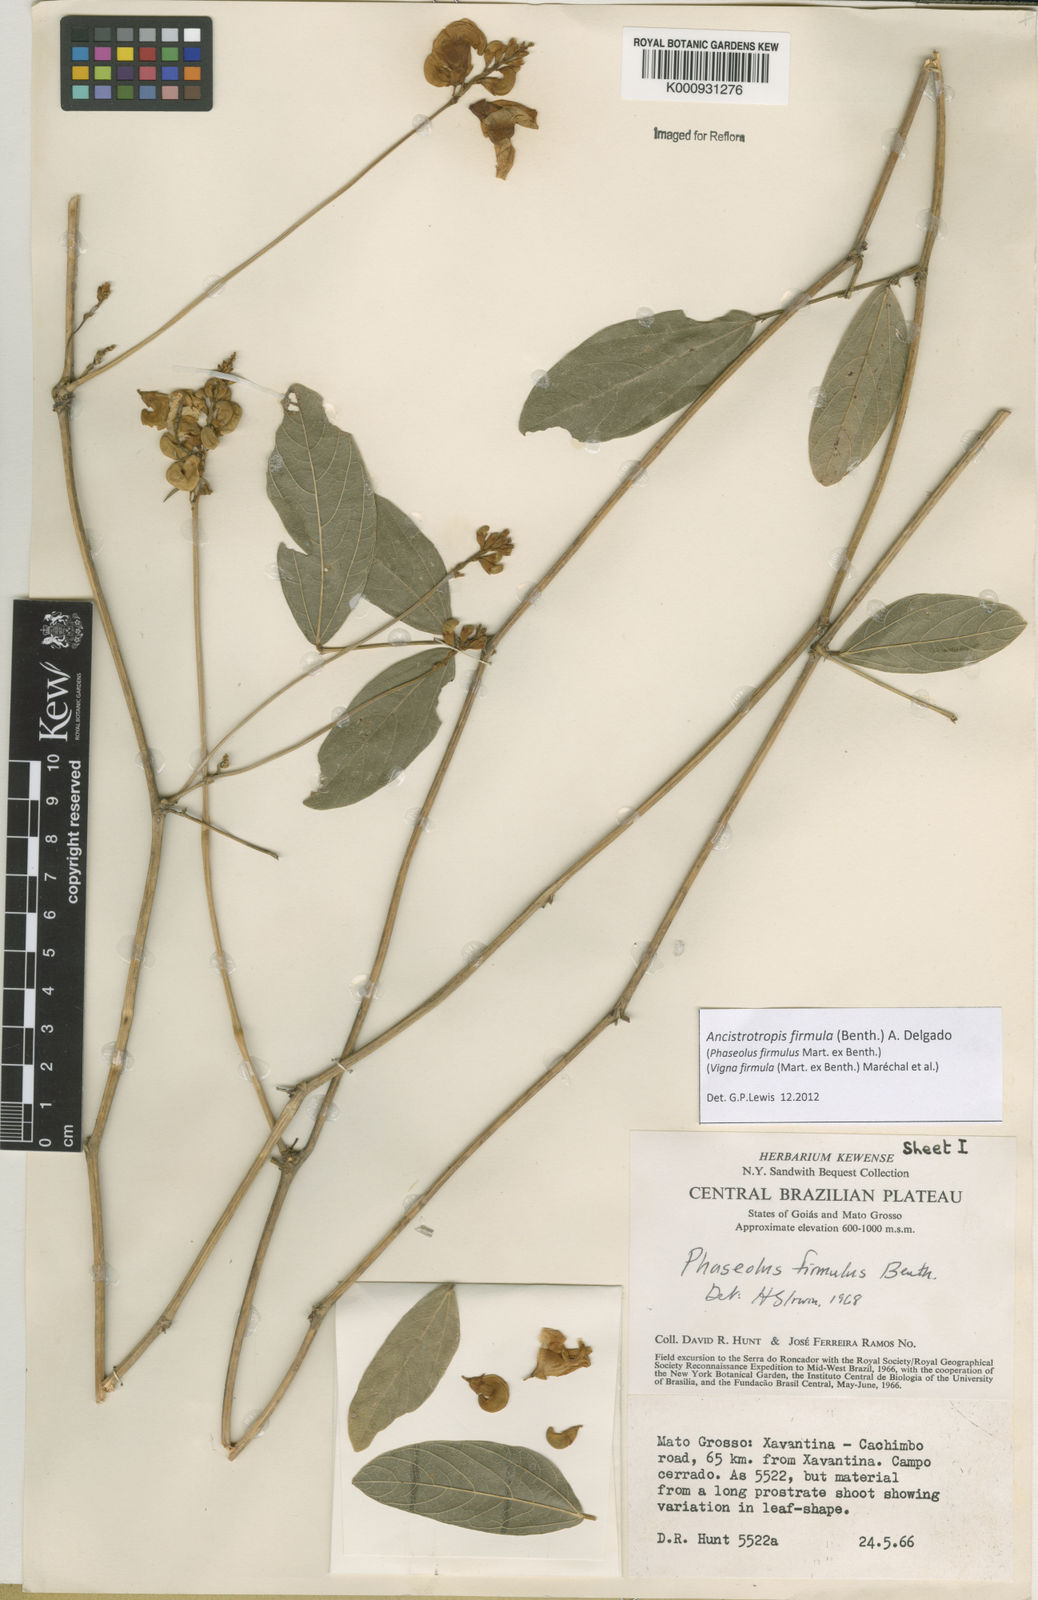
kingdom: Plantae
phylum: Tracheophyta
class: Magnoliopsida
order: Fabales
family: Fabaceae
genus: Ancistrotropis
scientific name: Ancistrotropis firmula
